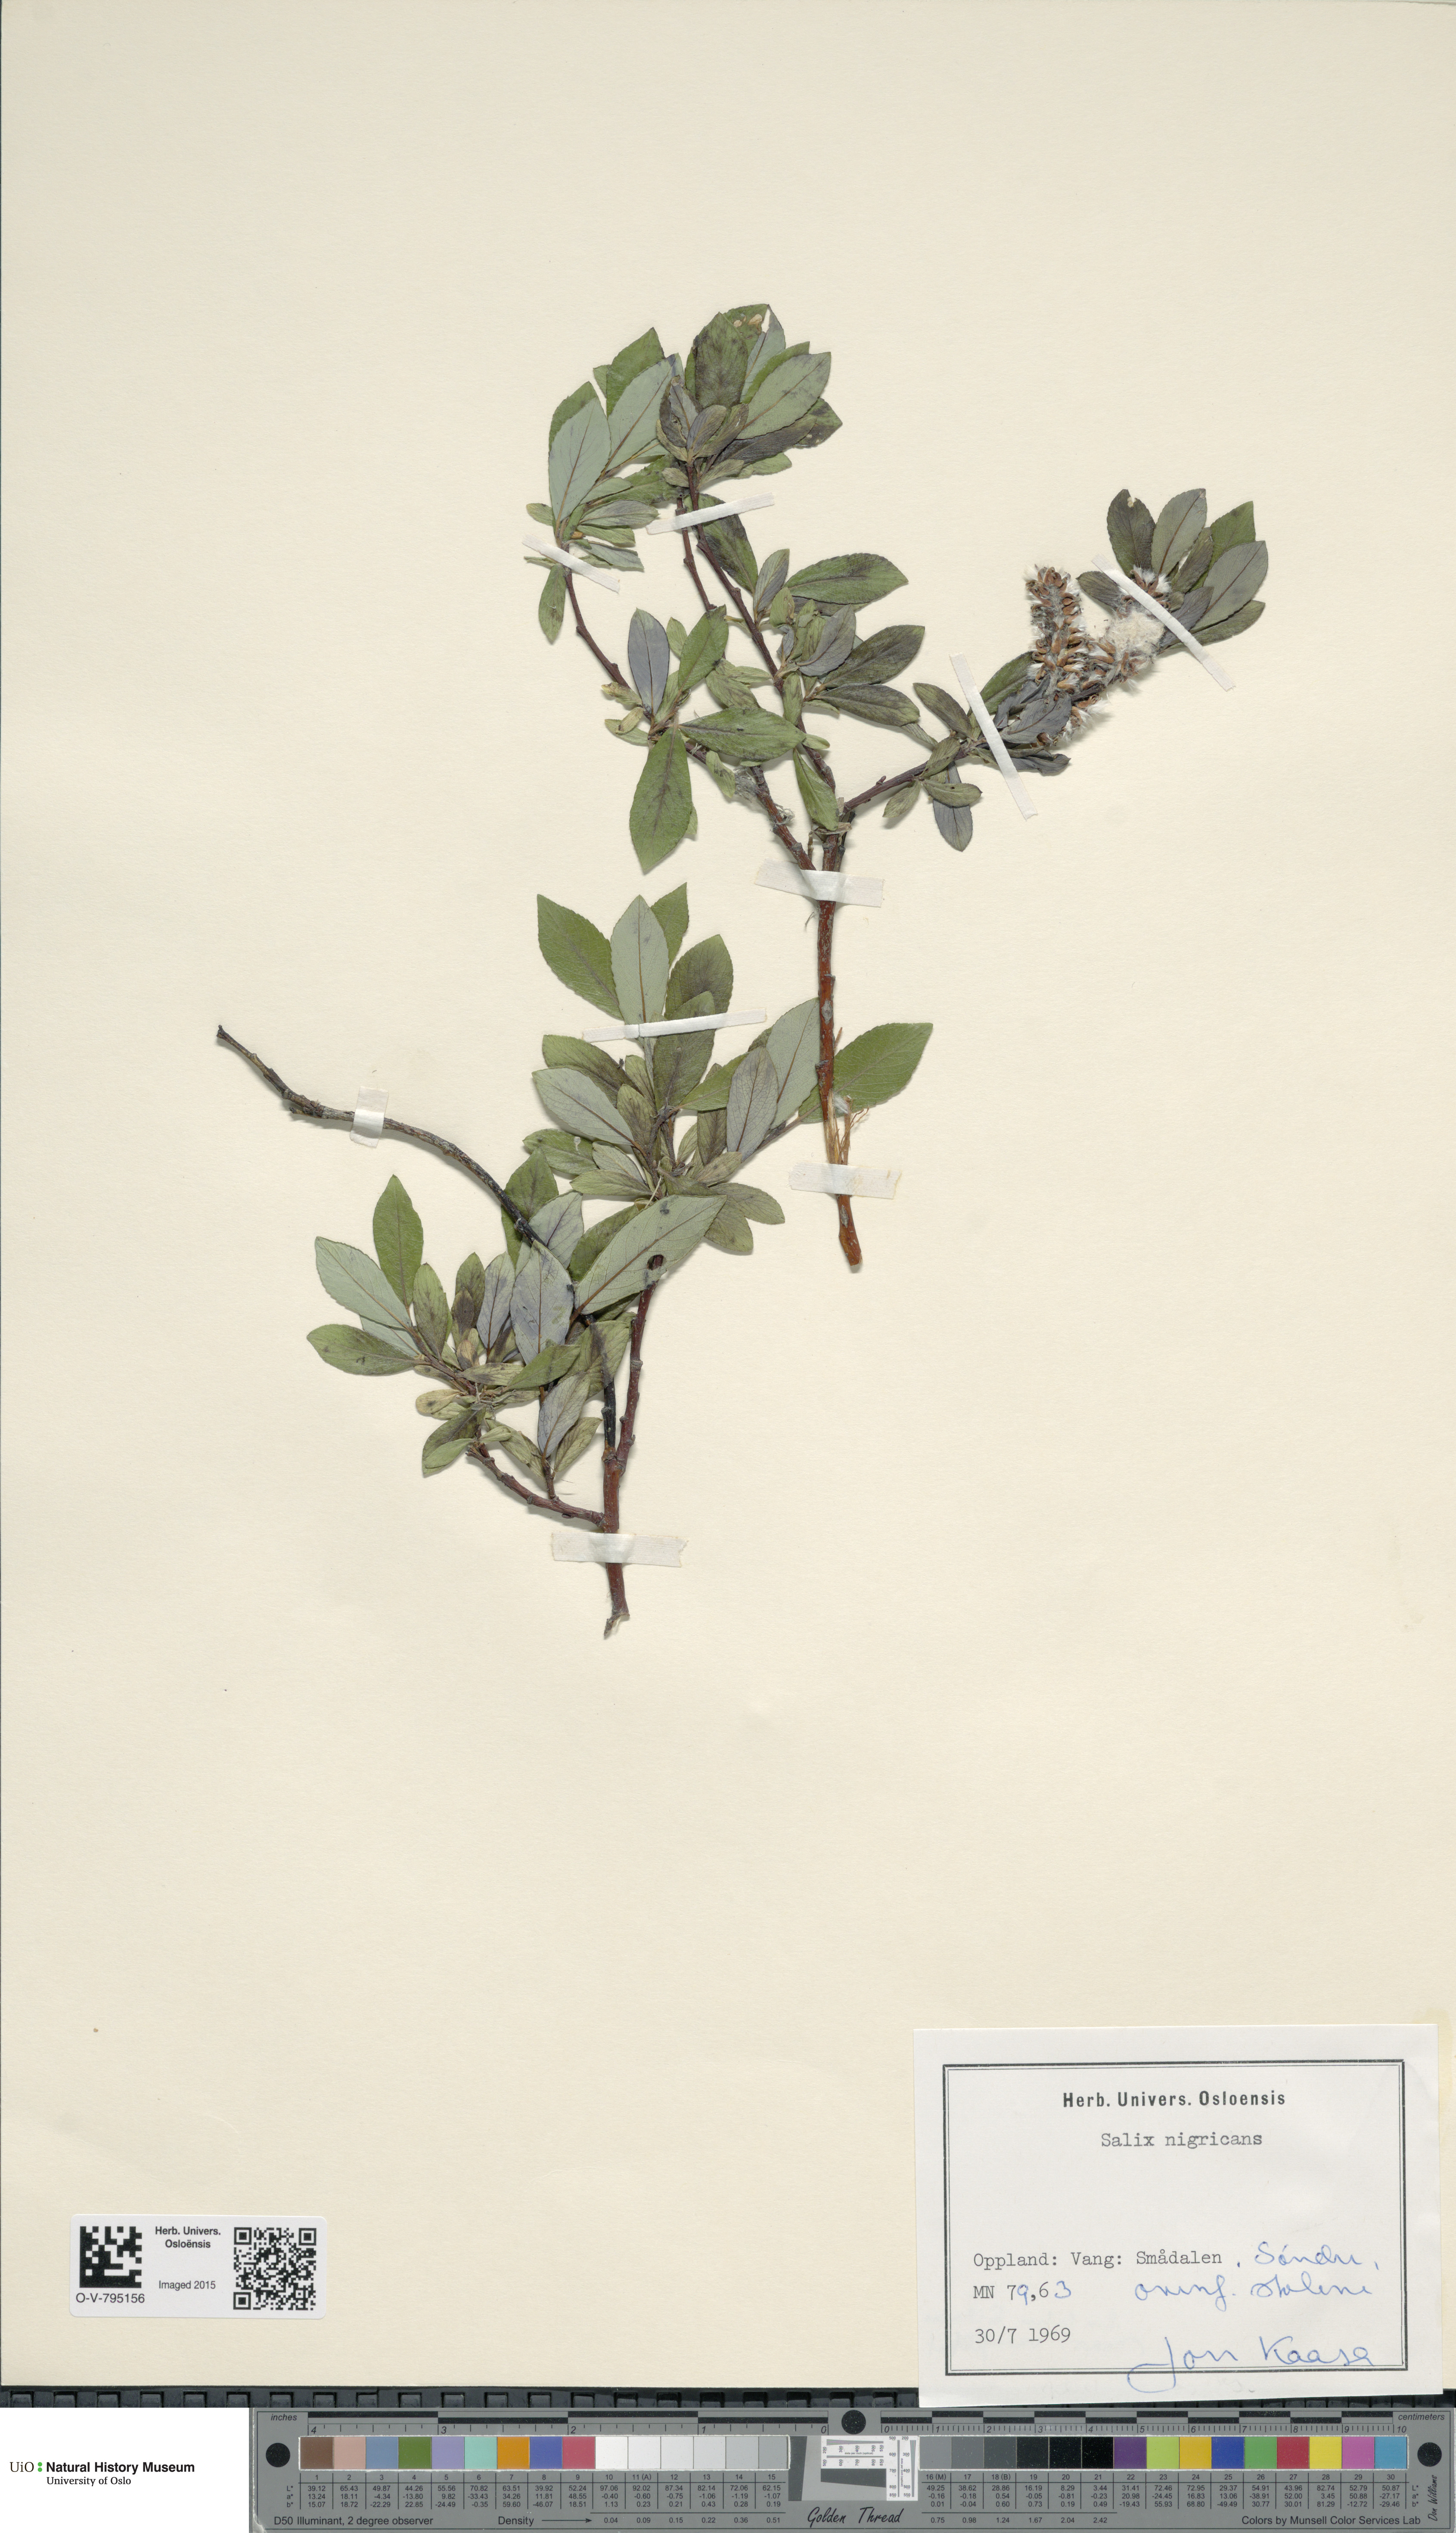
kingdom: Plantae
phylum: Tracheophyta
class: Magnoliopsida
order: Malpighiales
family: Salicaceae
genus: Salix
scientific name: Salix myrsinifolia
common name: Dark-leaved willow
